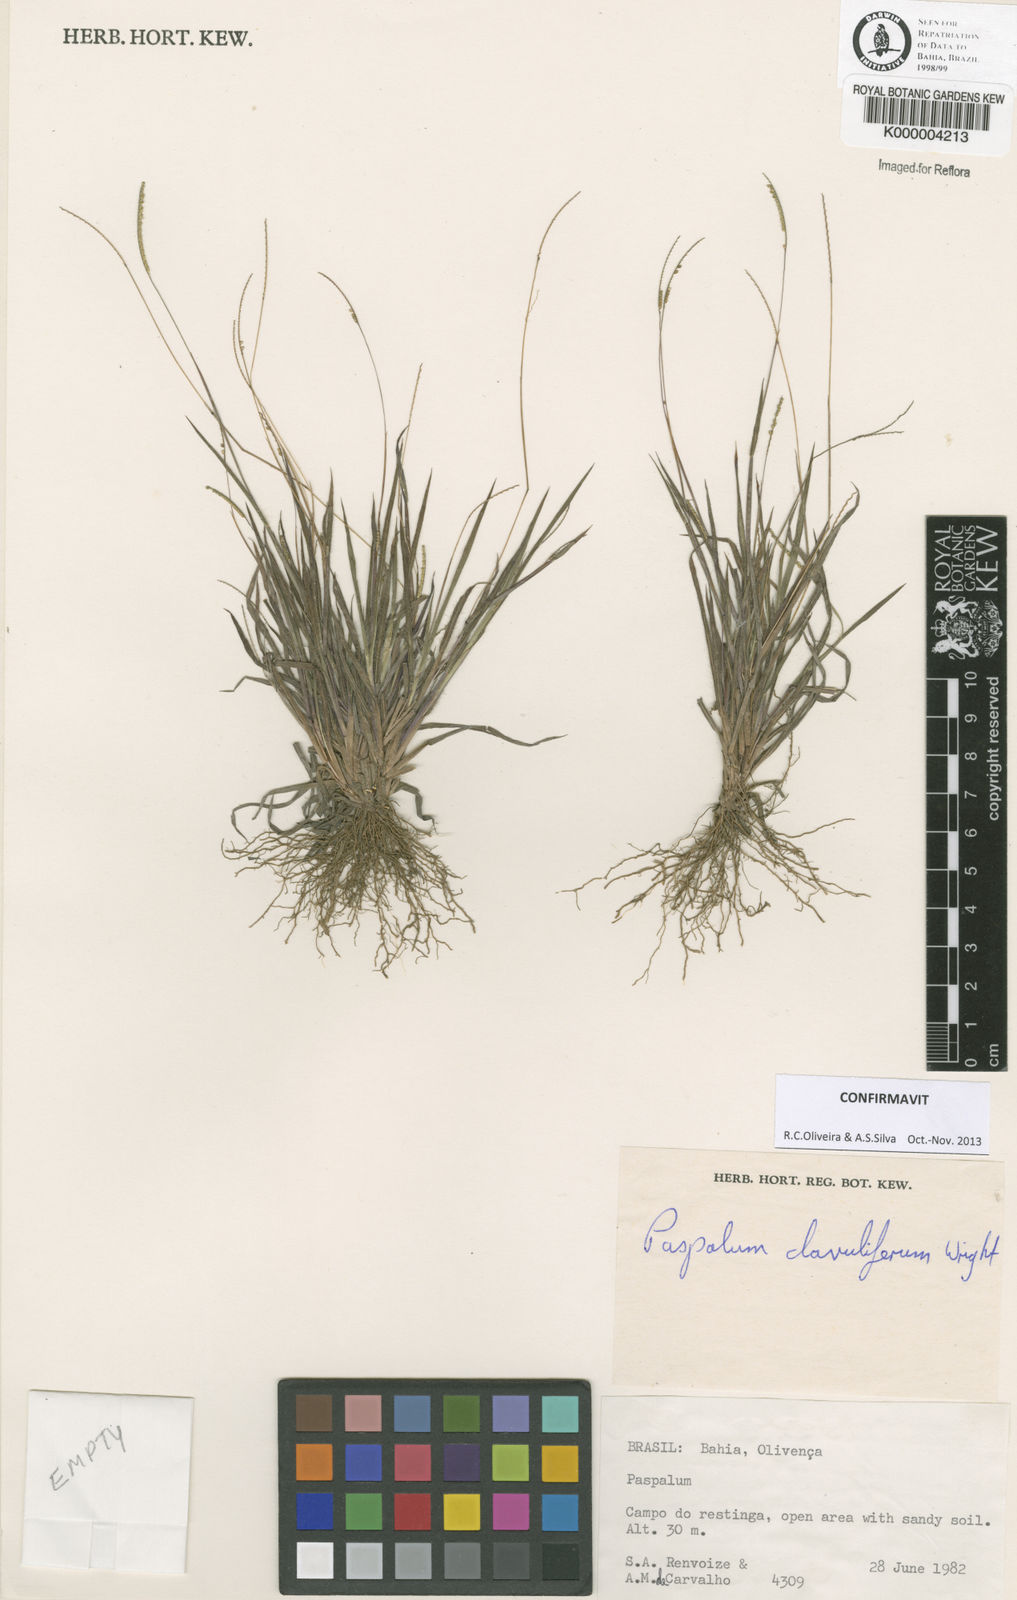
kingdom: Plantae
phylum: Tracheophyta
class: Liliopsida
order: Poales
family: Poaceae
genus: Paspalum
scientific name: Paspalum clavuliferum
